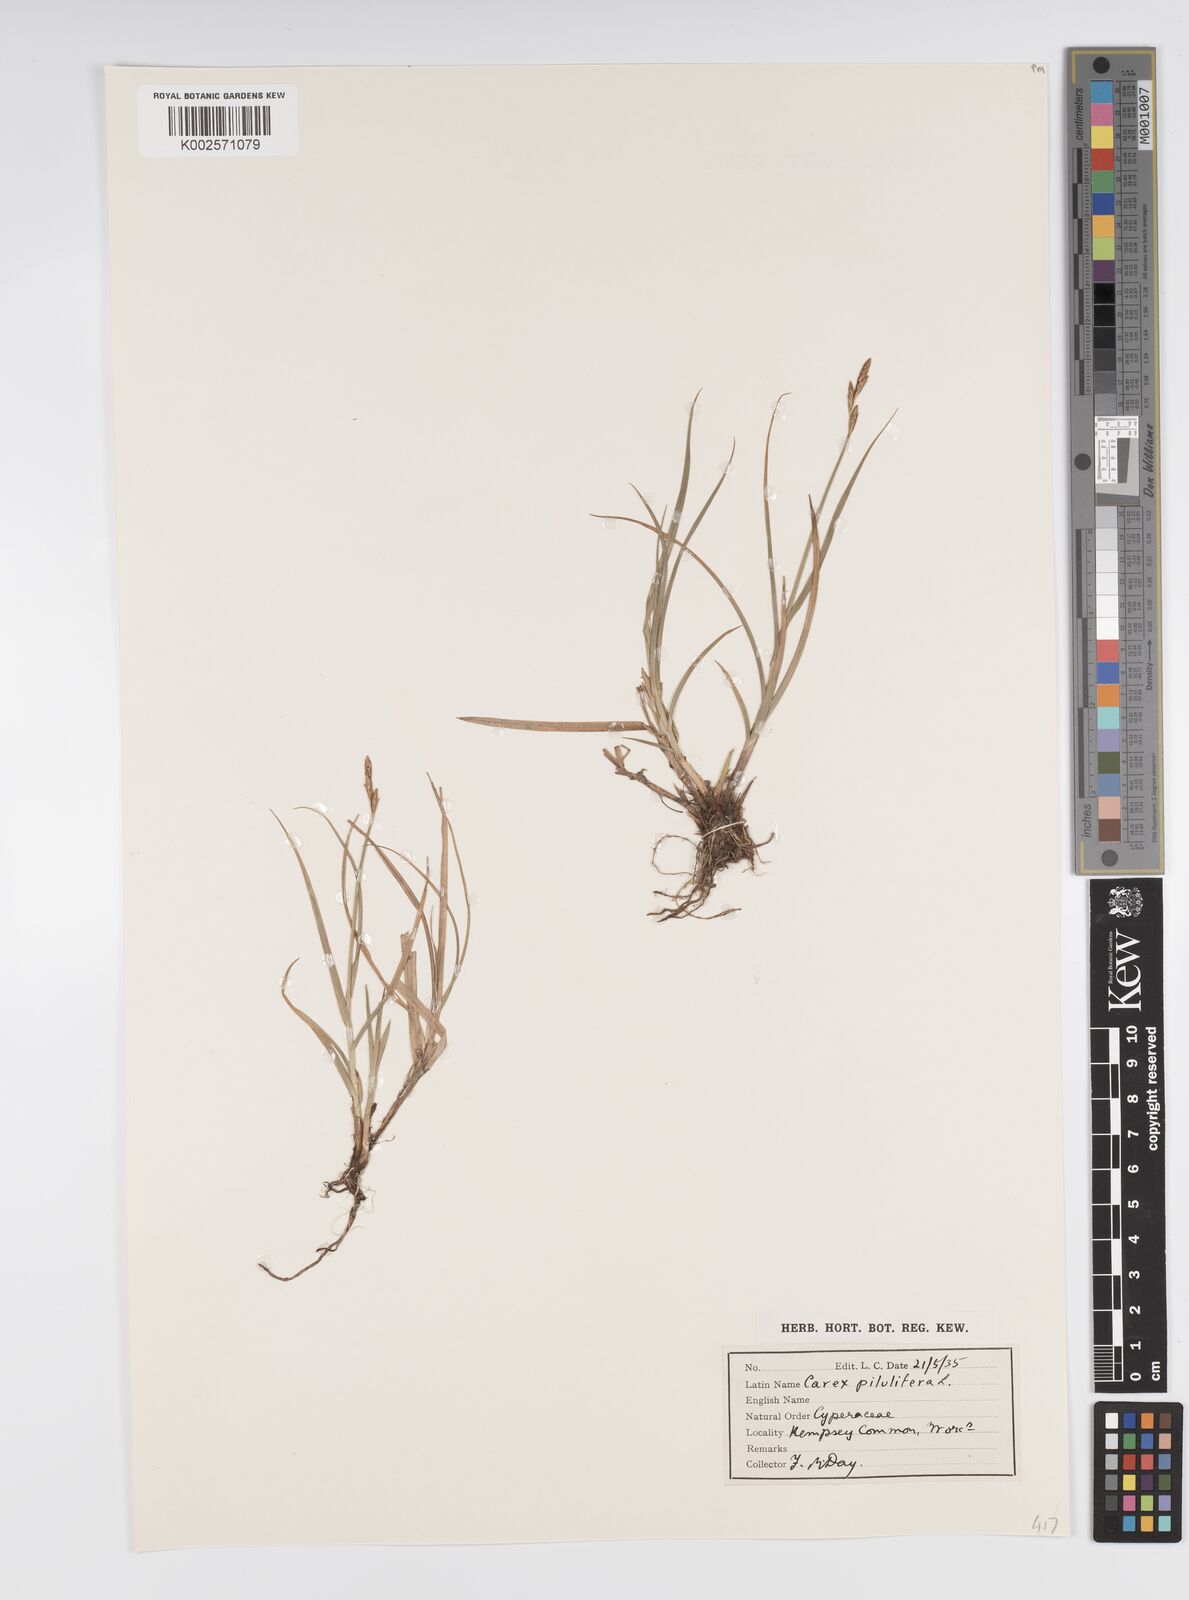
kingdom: Plantae
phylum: Tracheophyta
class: Liliopsida
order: Poales
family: Cyperaceae
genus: Carex
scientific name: Carex pilulifera
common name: Pill sedge
